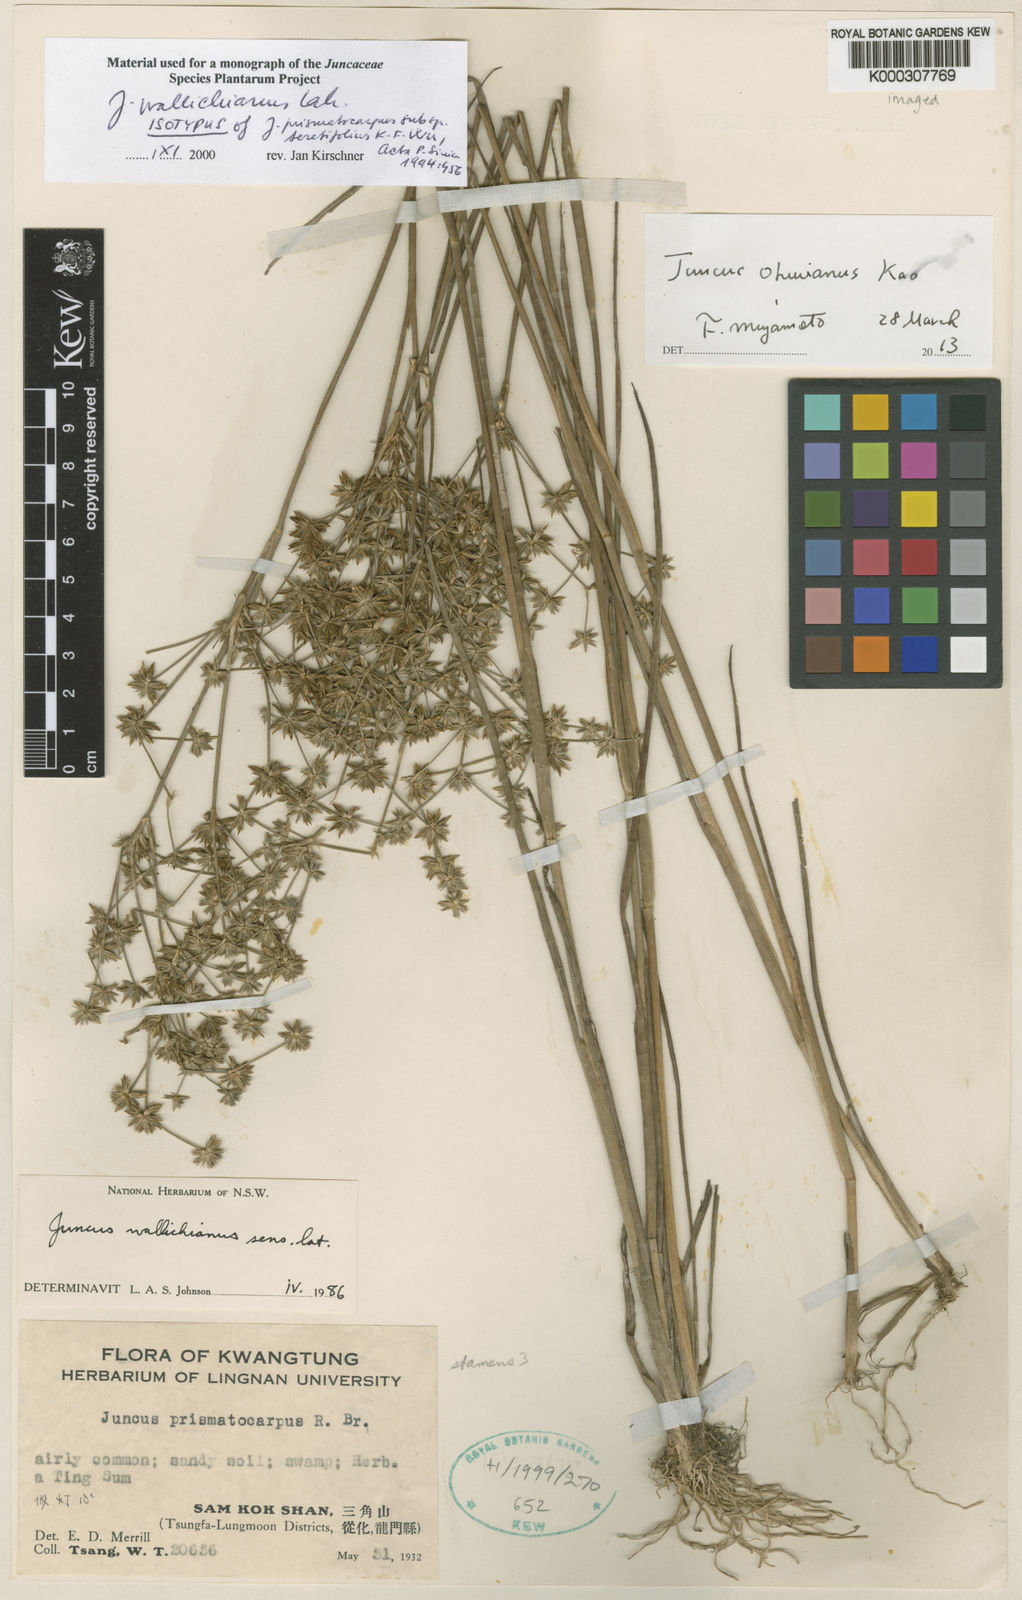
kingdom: Plantae
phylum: Tracheophyta
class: Liliopsida
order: Poales
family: Juncaceae
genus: Juncus
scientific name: Juncus
